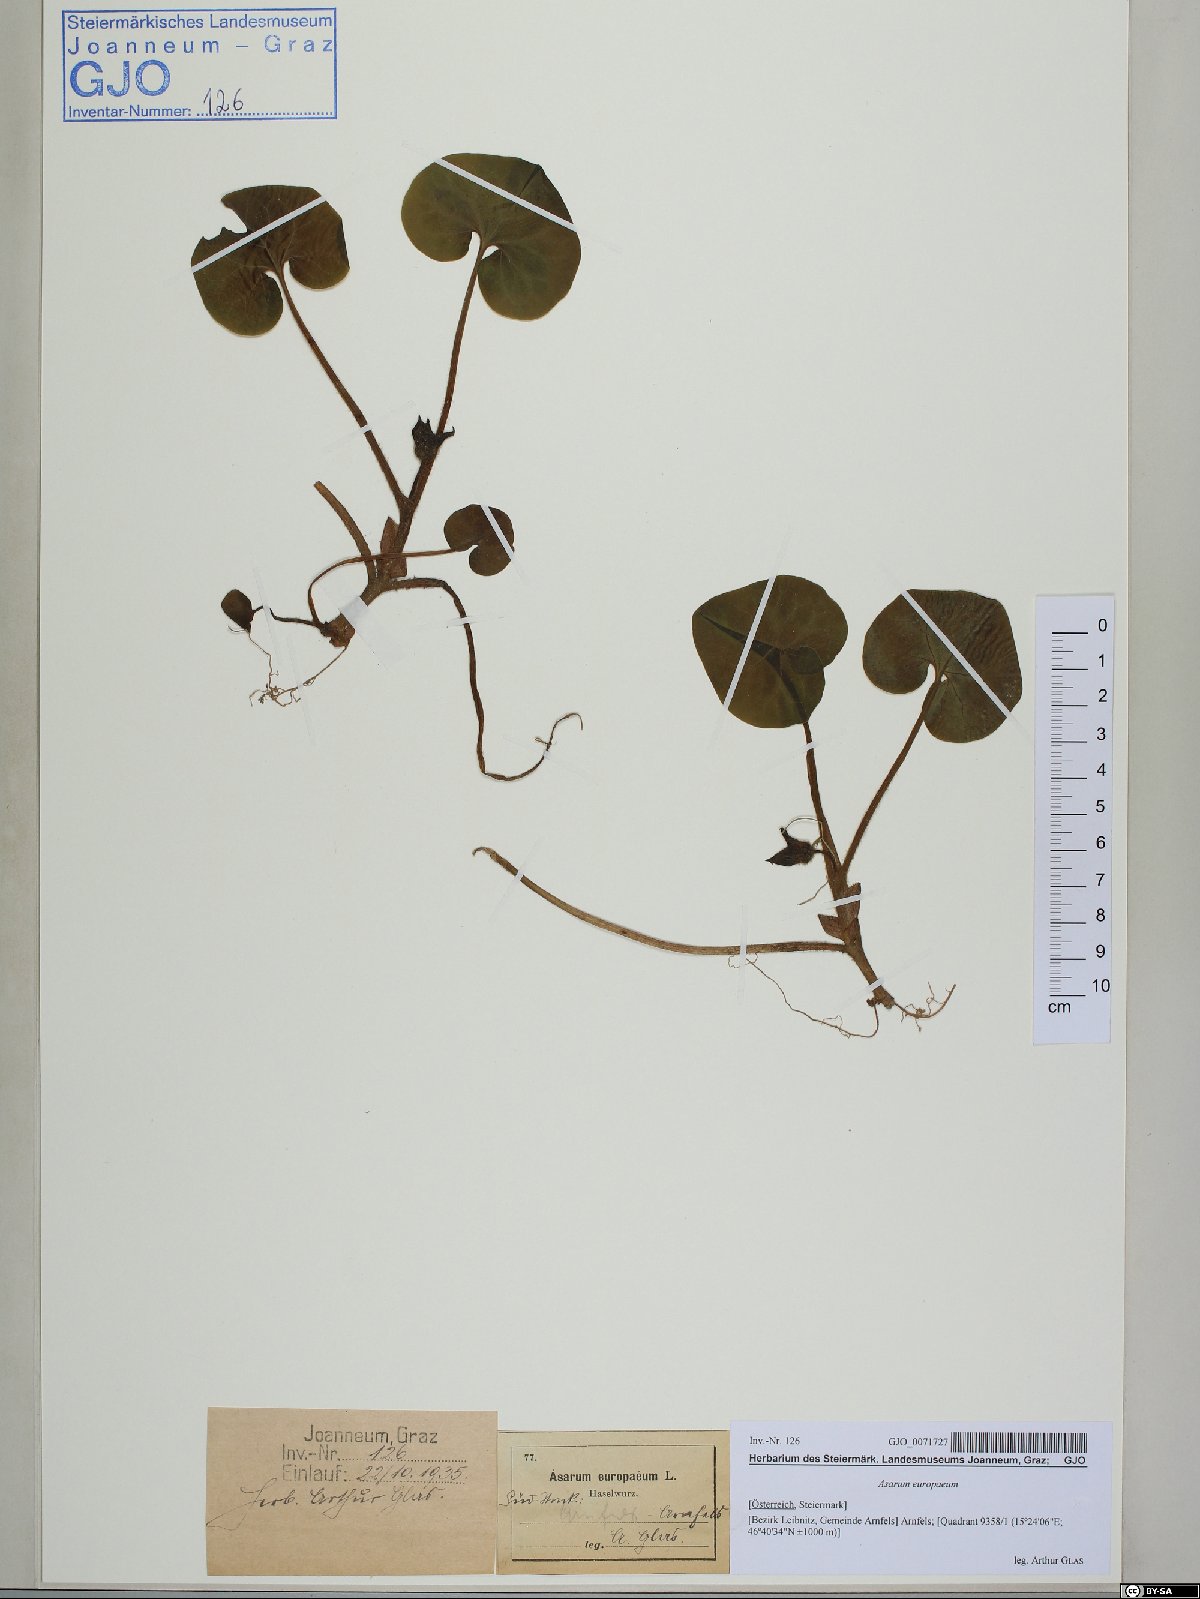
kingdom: Plantae
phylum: Tracheophyta
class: Magnoliopsida
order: Piperales
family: Aristolochiaceae
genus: Asarum
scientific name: Asarum europaeum
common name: Asarabacca
